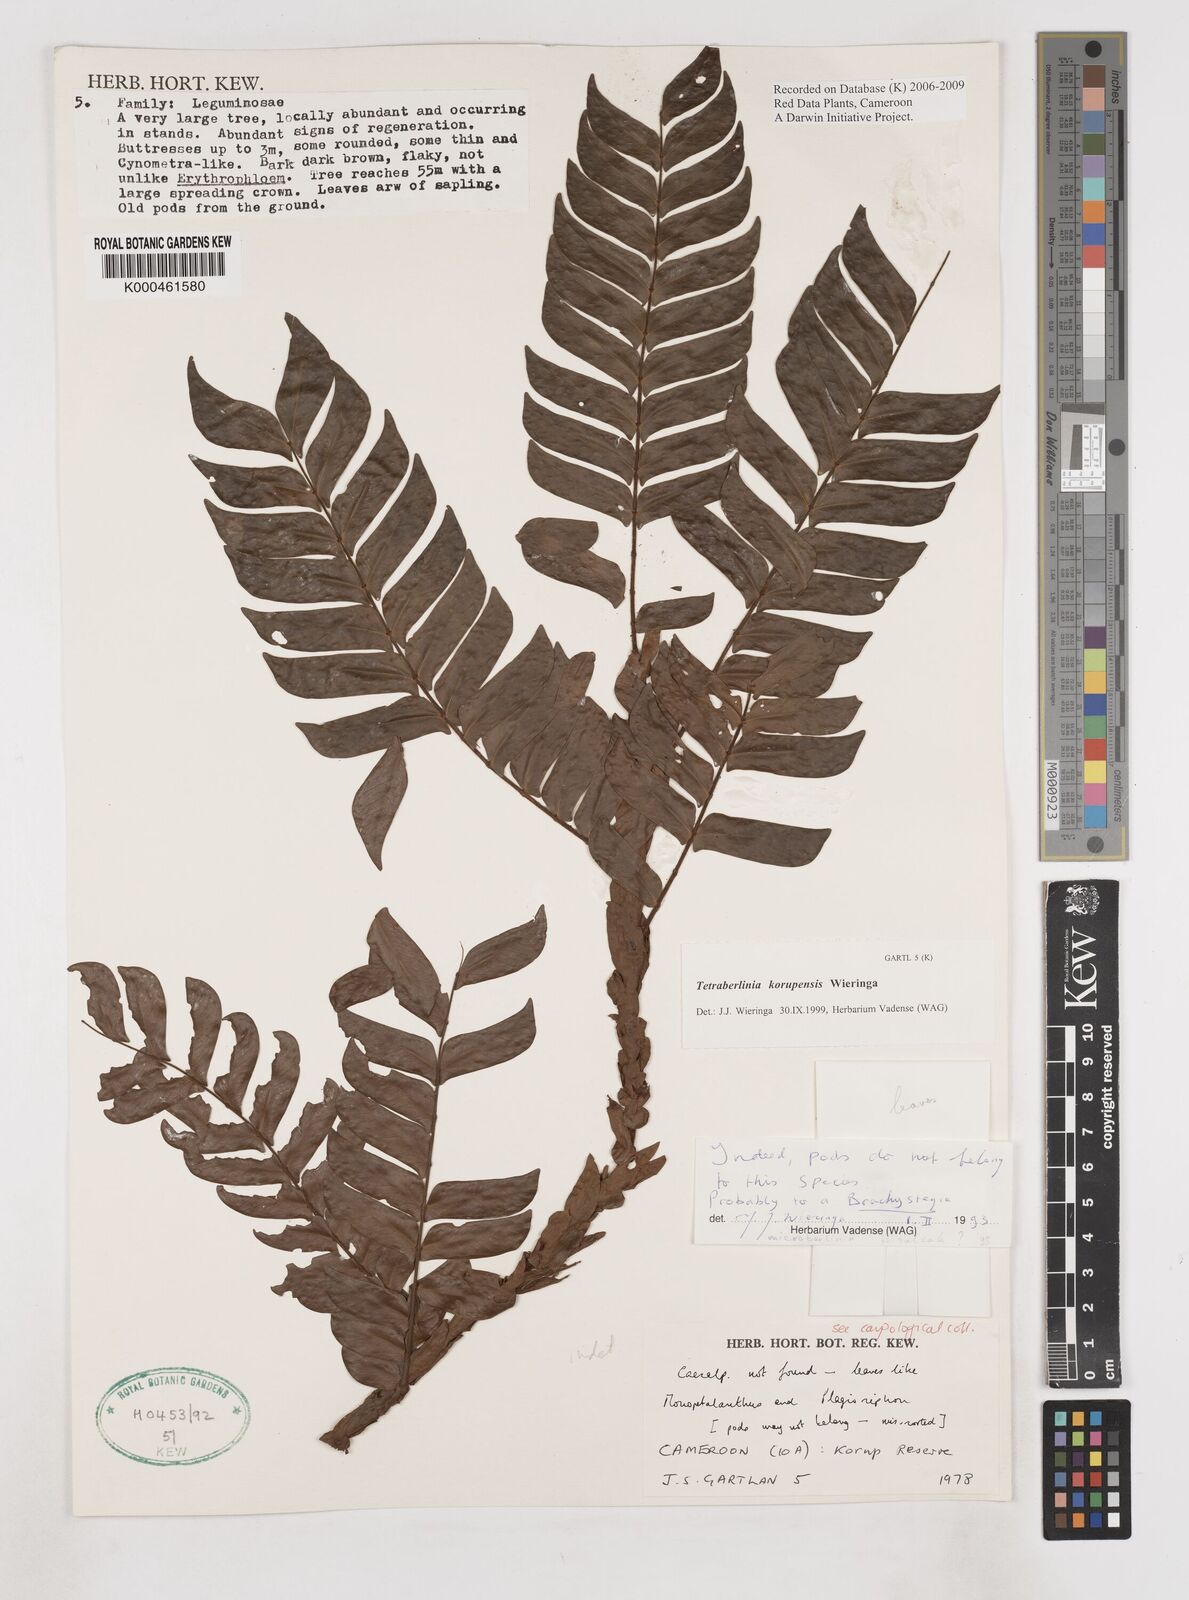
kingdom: Plantae
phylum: Tracheophyta
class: Magnoliopsida
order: Fabales
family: Fabaceae
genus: Tetraberlinia
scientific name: Tetraberlinia korupensis
